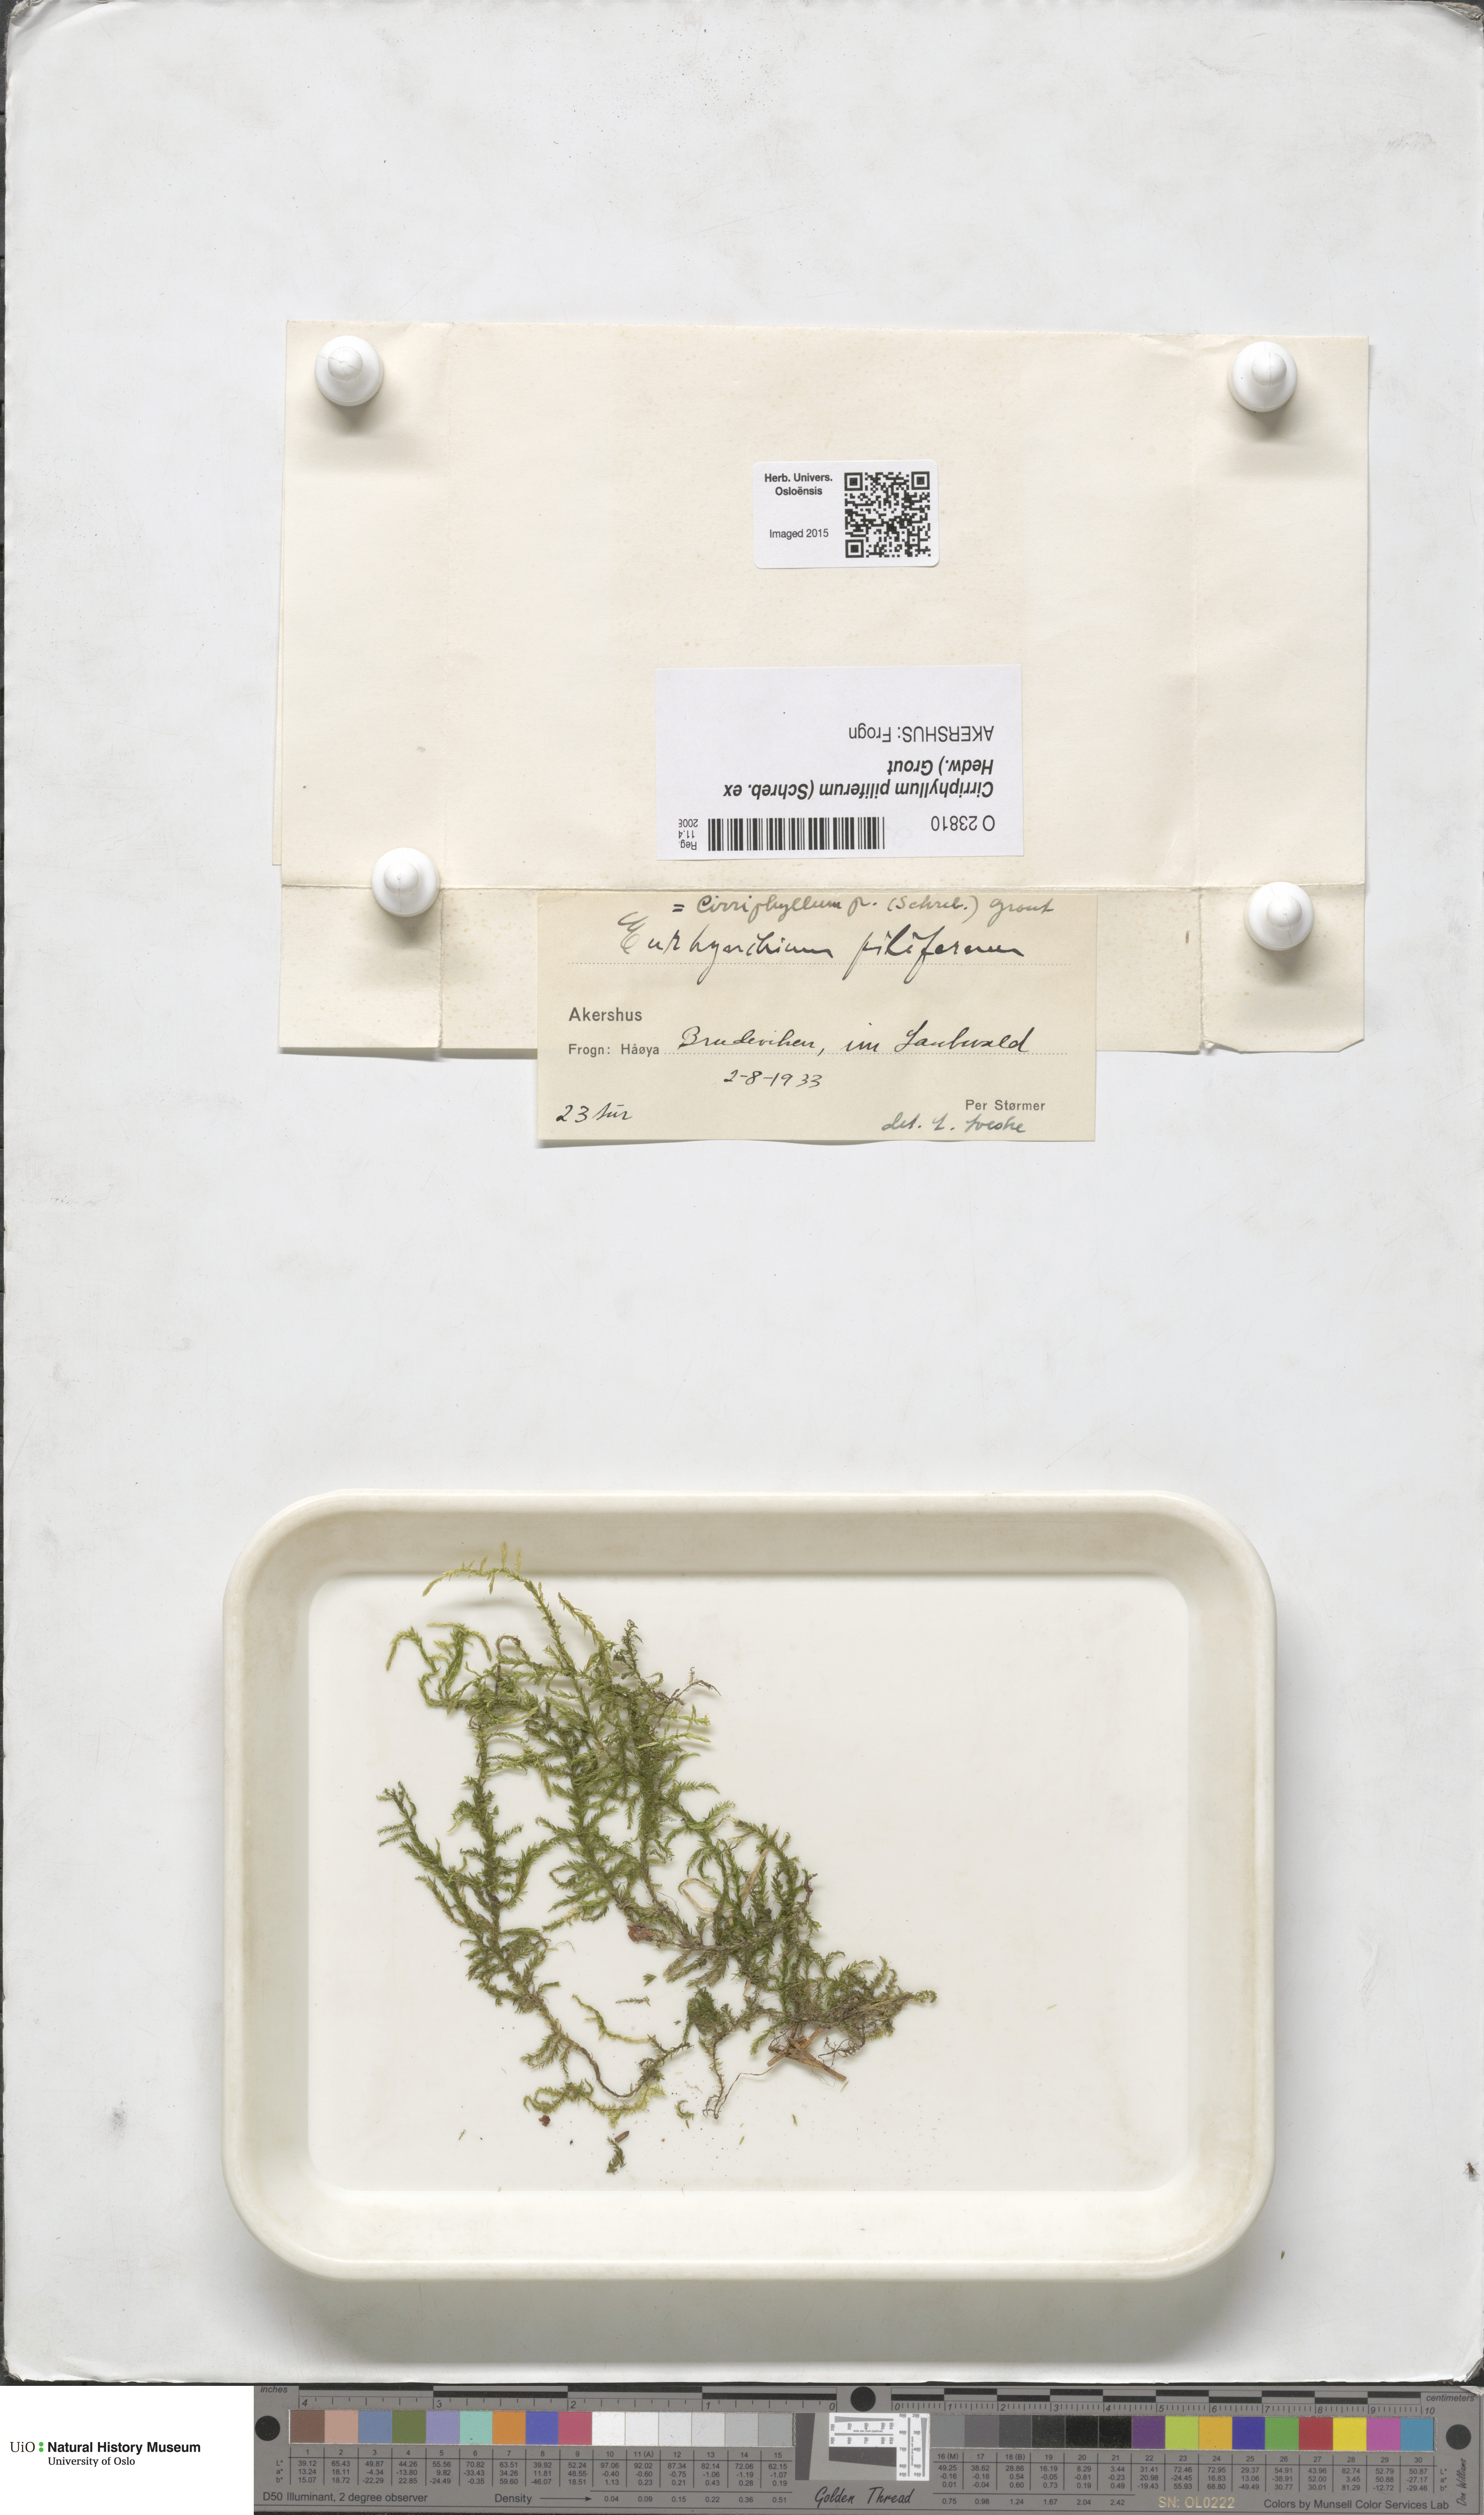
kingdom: Plantae
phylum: Bryophyta
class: Bryopsida
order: Hypnales
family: Brachytheciaceae
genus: Cirriphyllum
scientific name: Cirriphyllum piliferum
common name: Hair-pointed moss
